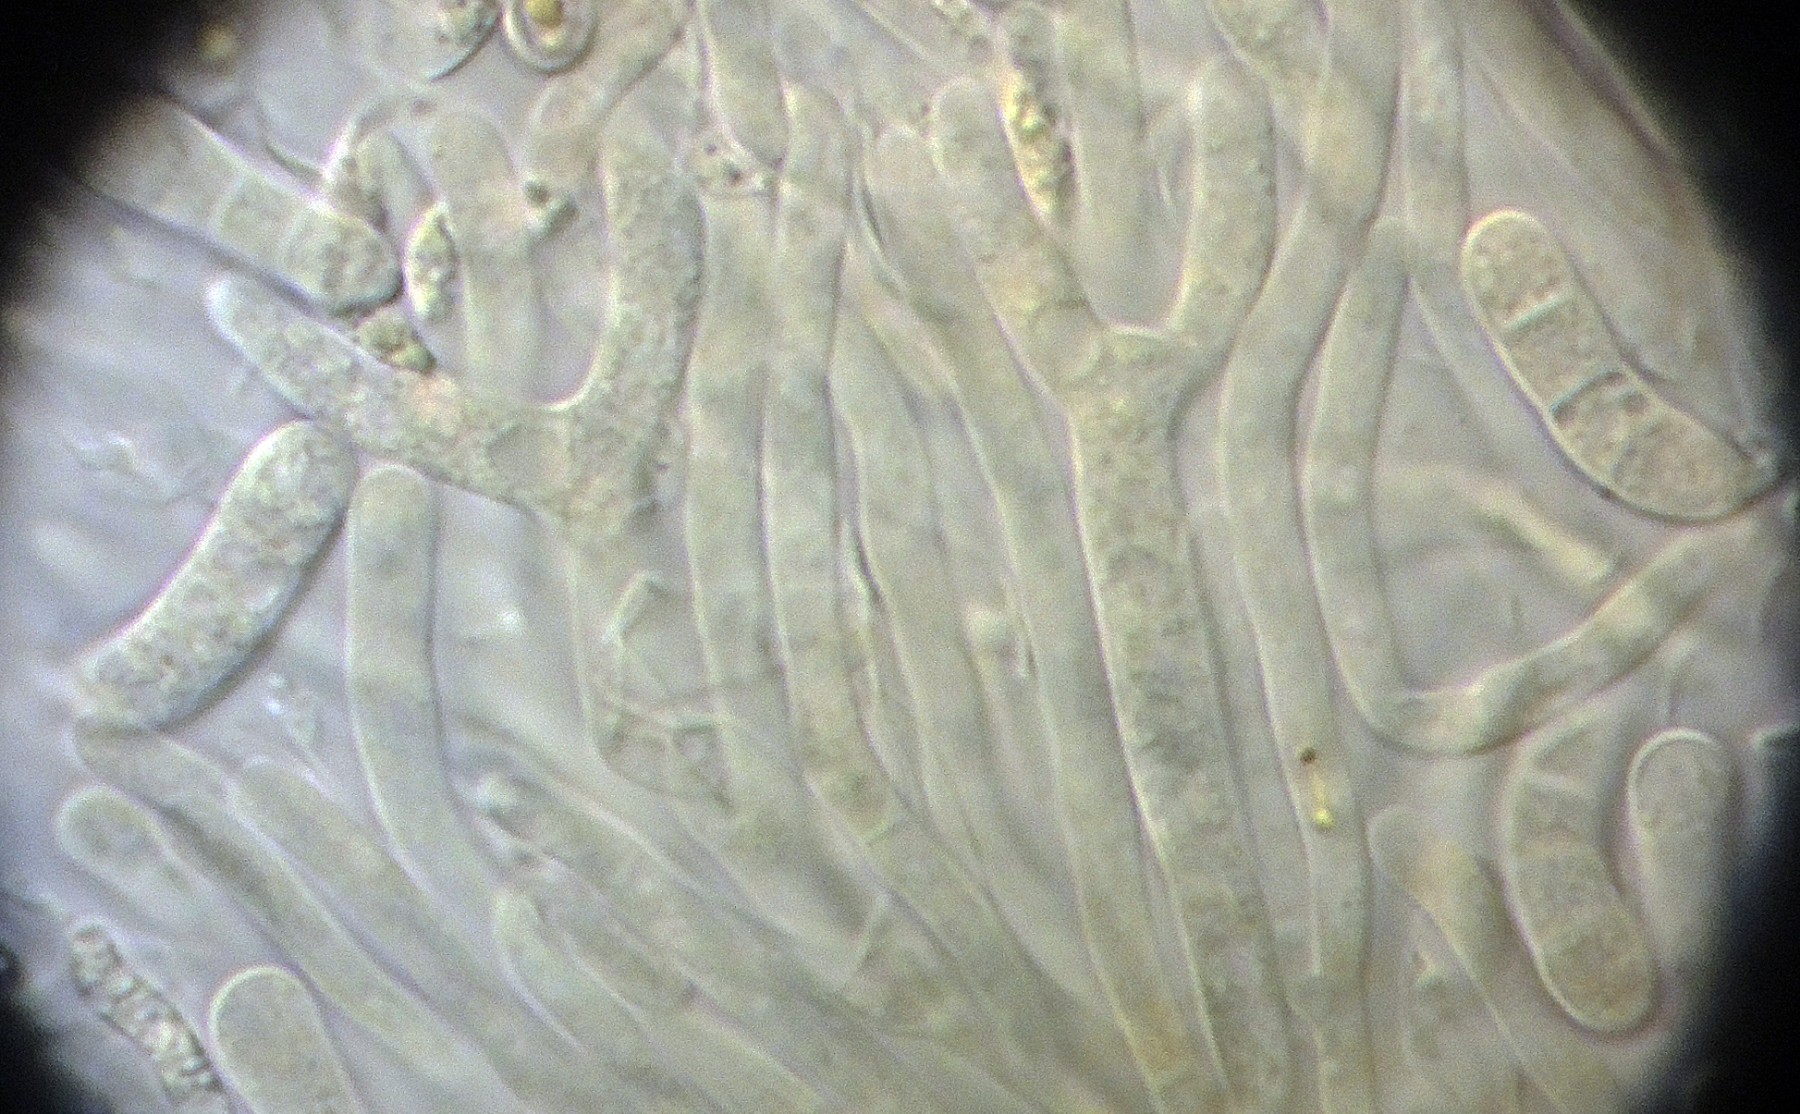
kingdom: Fungi
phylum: Basidiomycota
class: Dacrymycetes
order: Dacrymycetales
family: Dacrymycetaceae
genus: Dacrymyces
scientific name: Dacrymyces minor
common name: lille tåresvamp
